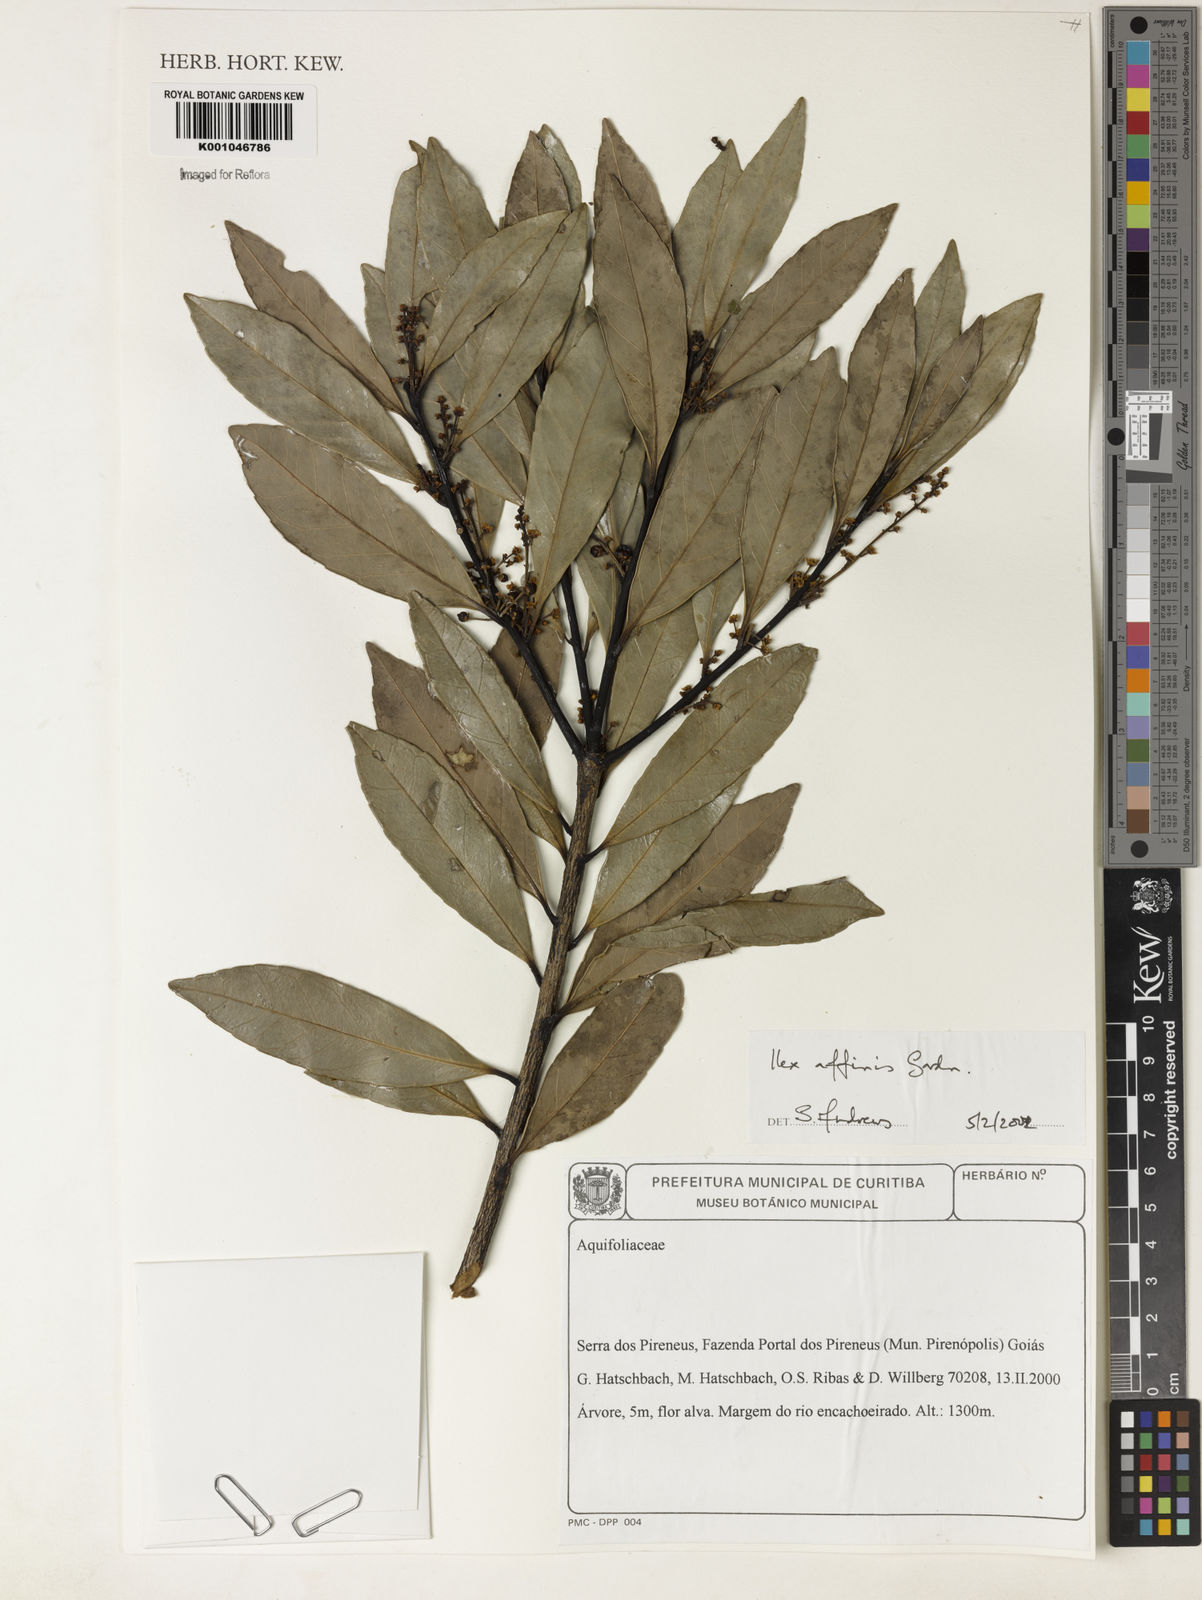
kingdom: Plantae
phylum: Tracheophyta
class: Magnoliopsida
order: Aquifoliales
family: Aquifoliaceae
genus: Ilex
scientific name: Ilex affinis
